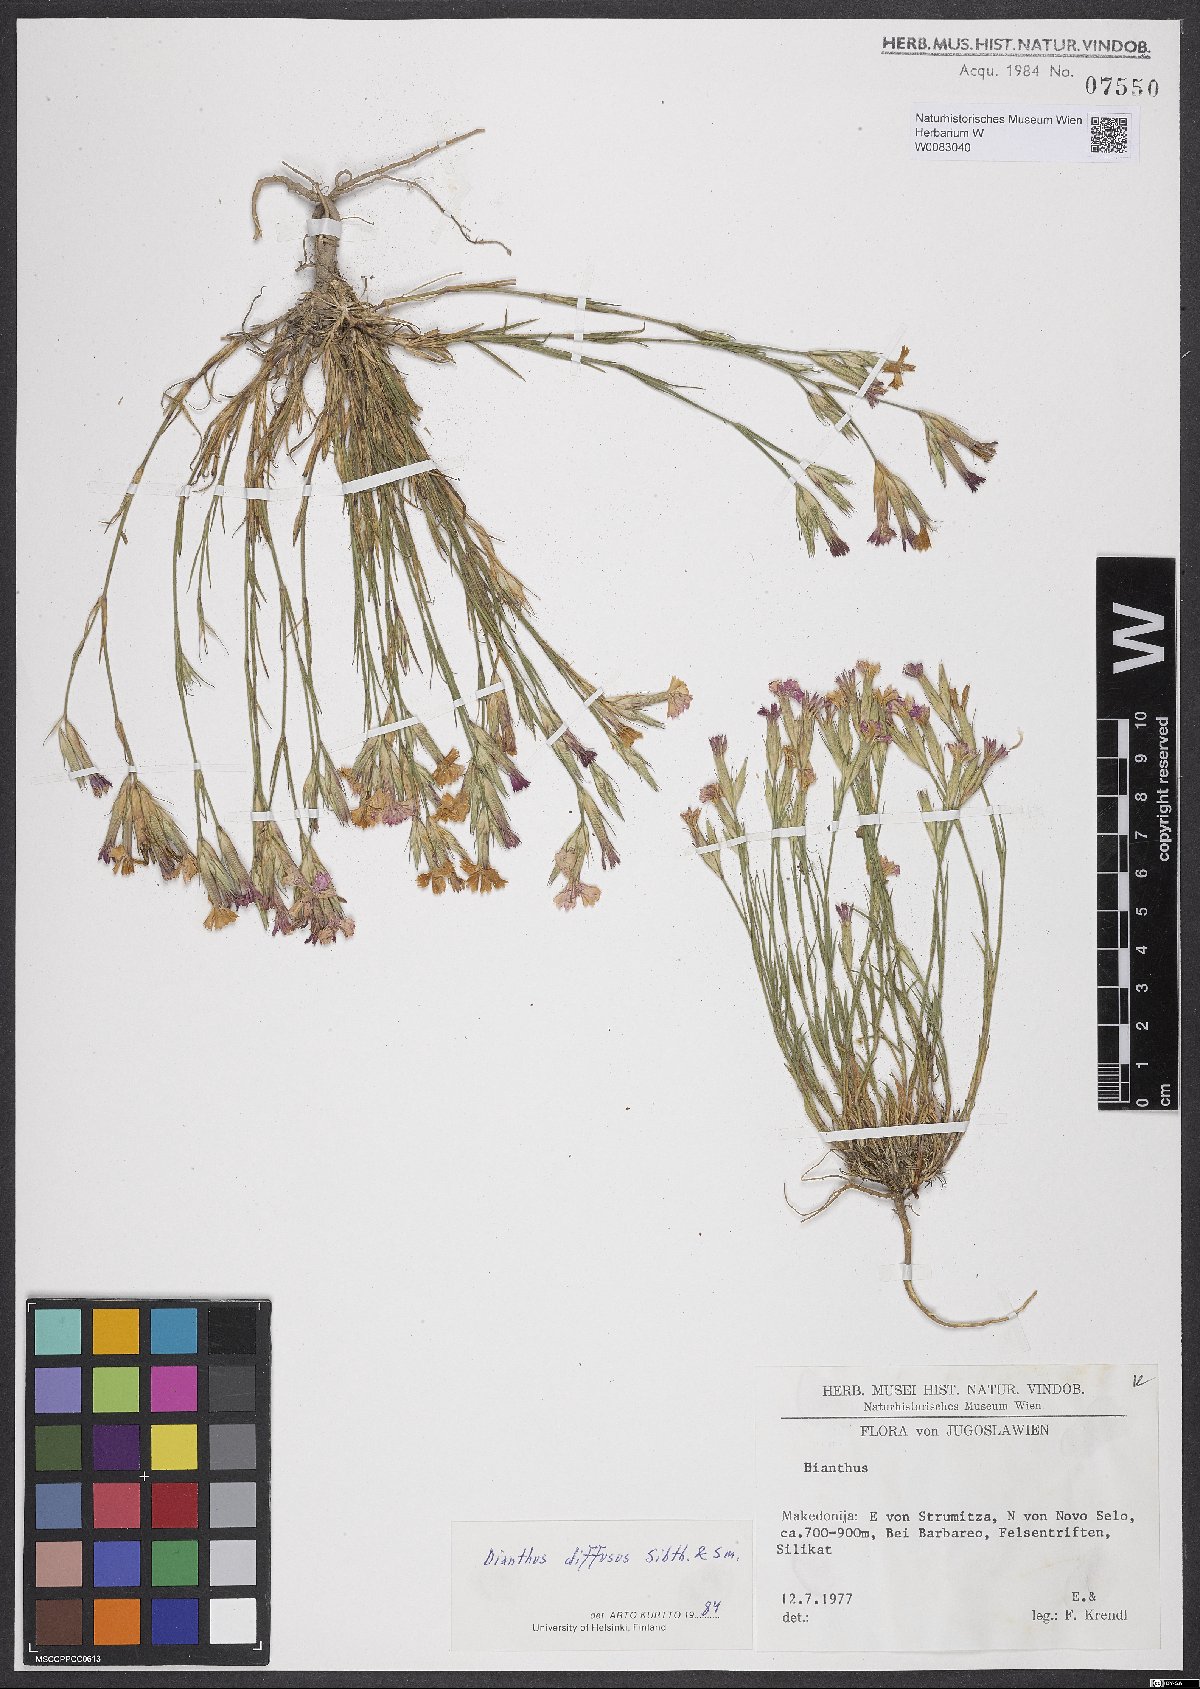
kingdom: Plantae
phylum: Tracheophyta
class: Magnoliopsida
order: Caryophyllales
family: Caryophyllaceae
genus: Dianthus
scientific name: Dianthus diffusus
